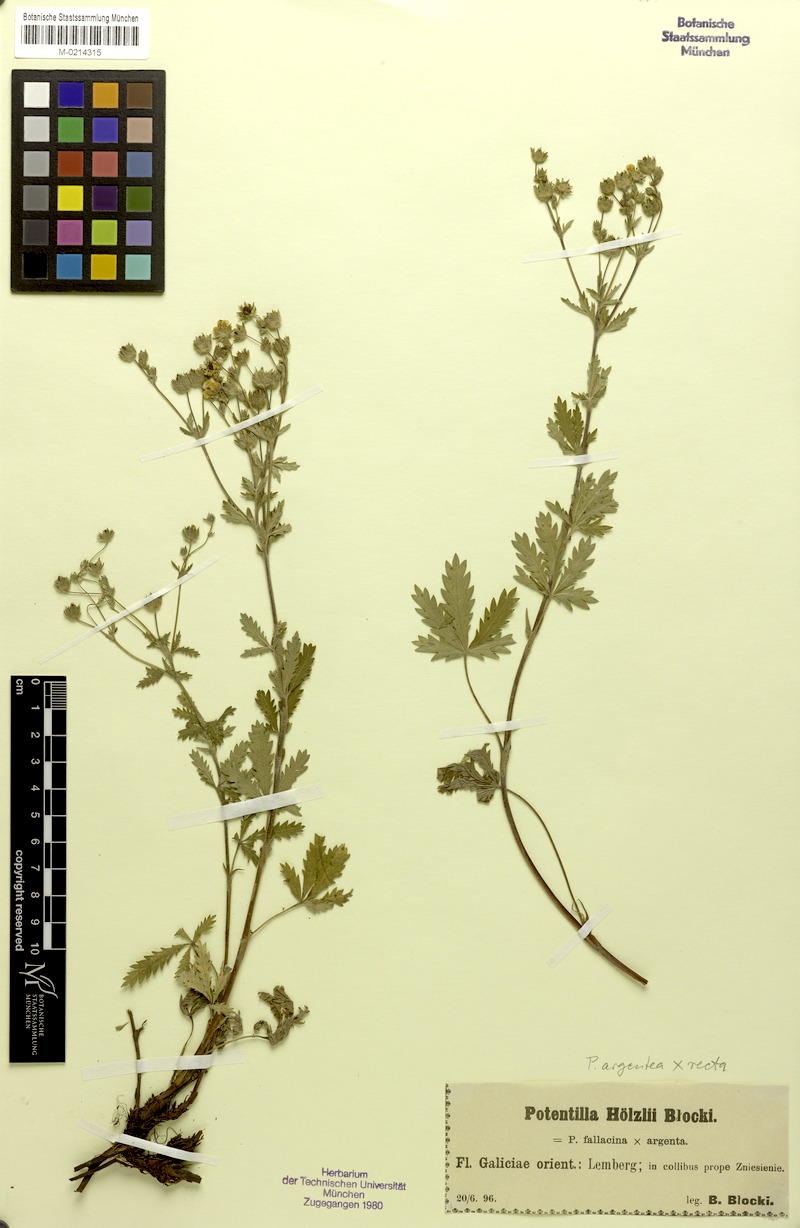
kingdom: Plantae
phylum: Tracheophyta
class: Magnoliopsida
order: Rosales
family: Rosaceae
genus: Potentilla
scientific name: Potentilla inclinata
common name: Grey cinquefoil
